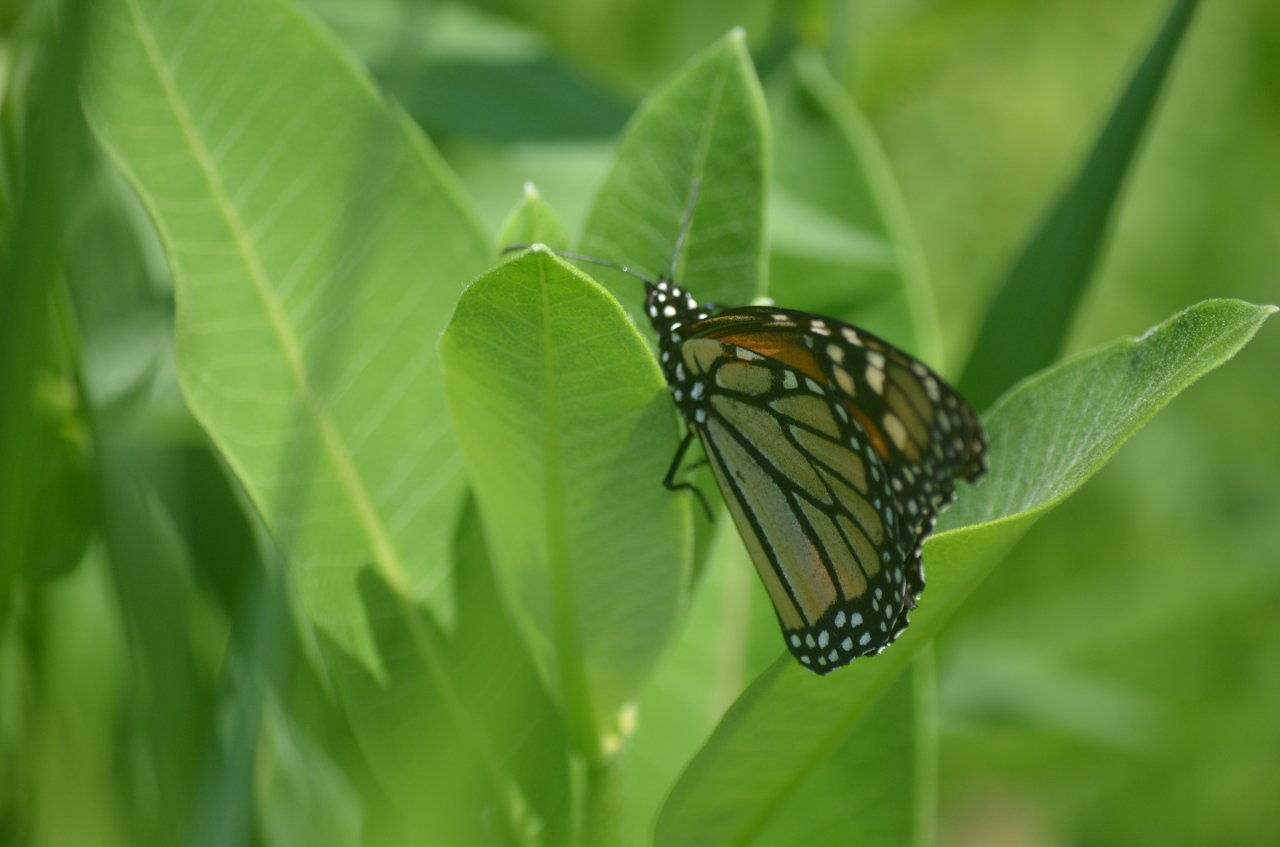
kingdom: Animalia
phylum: Arthropoda
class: Insecta
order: Lepidoptera
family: Nymphalidae
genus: Danaus
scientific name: Danaus plexippus
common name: Monarch
